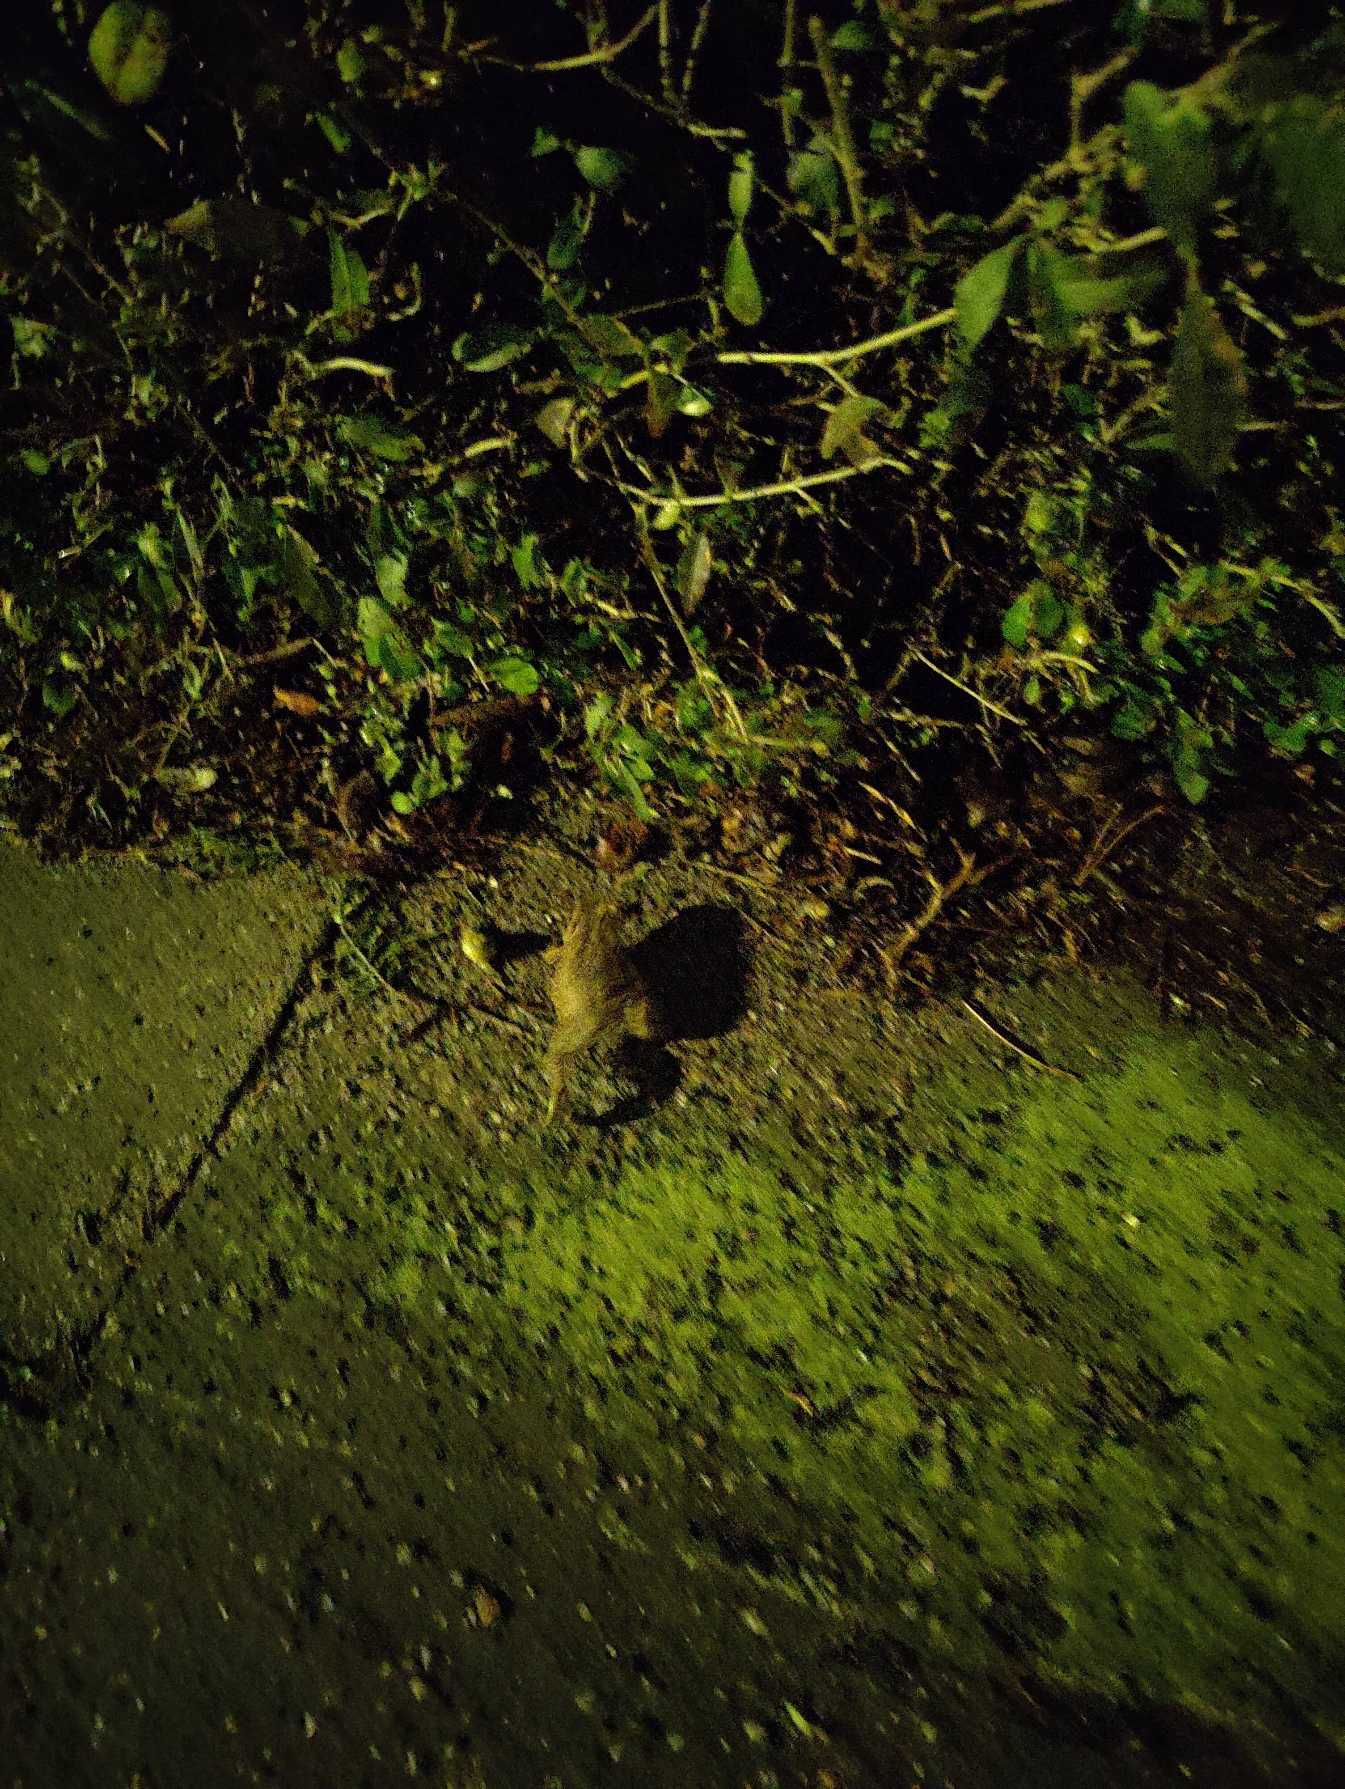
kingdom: Animalia
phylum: Chordata
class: Amphibia
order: Anura
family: Bufonidae
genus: Bufo
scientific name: Bufo bufo
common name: Skrubtudse
